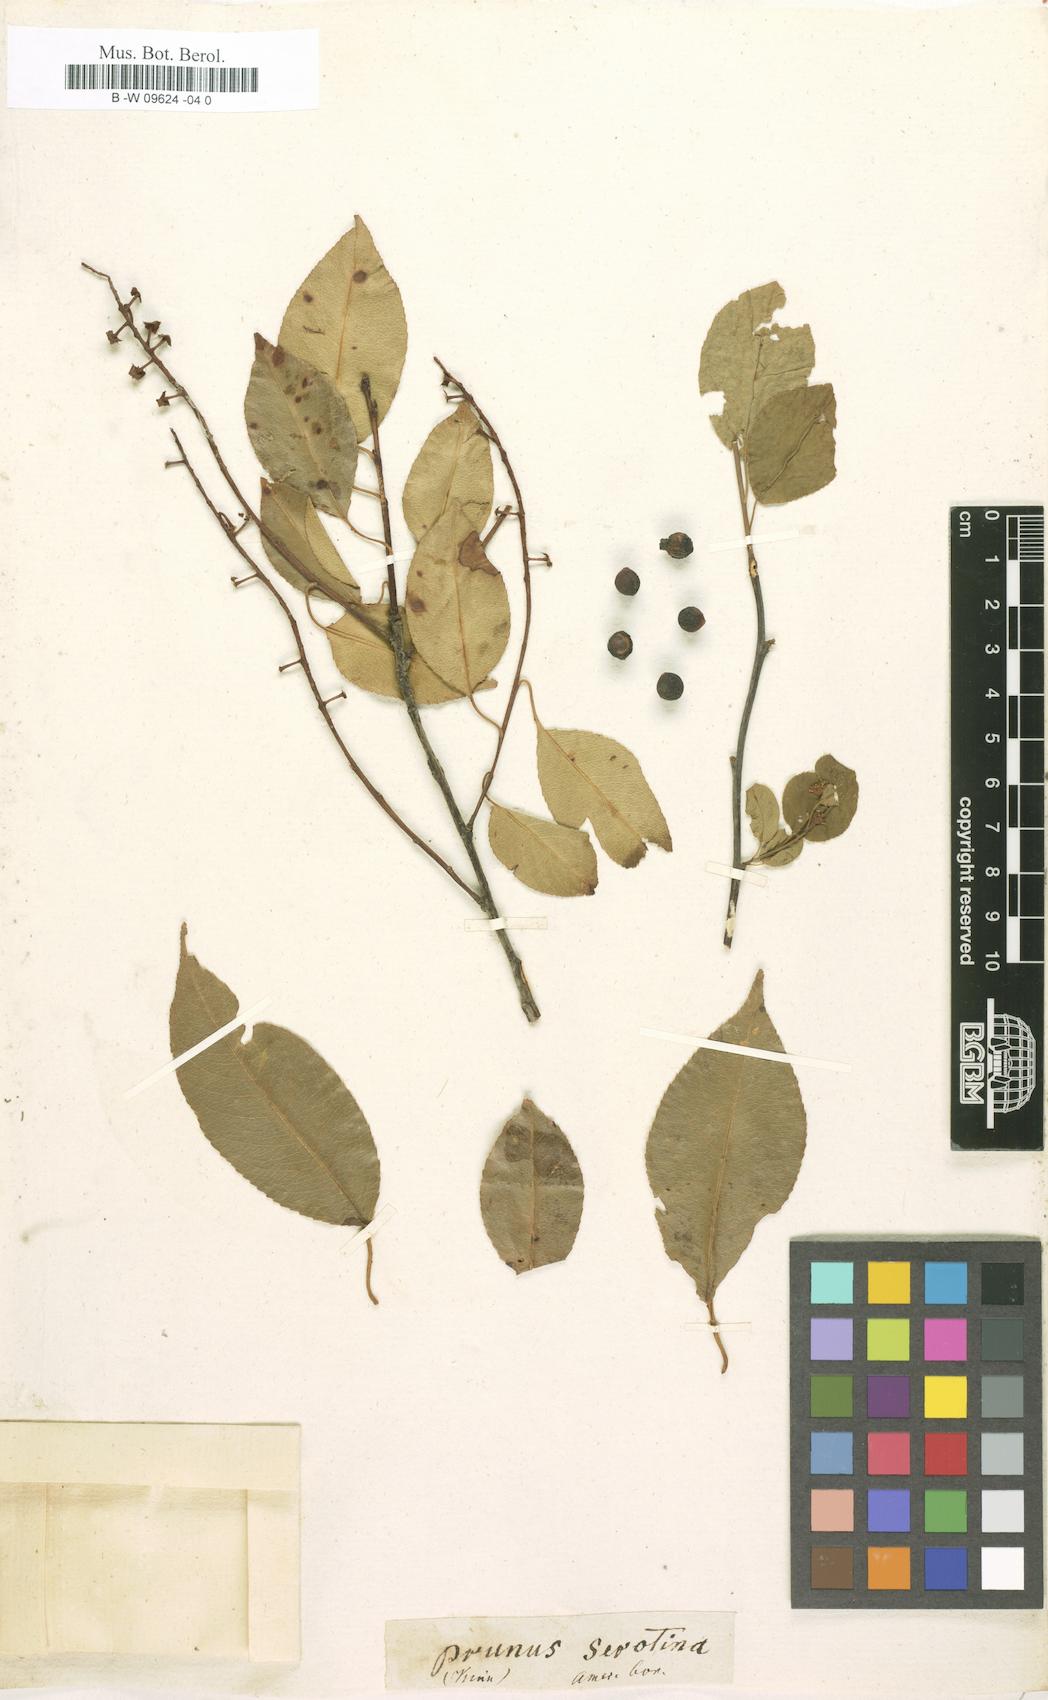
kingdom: Plantae
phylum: Tracheophyta
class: Magnoliopsida
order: Rosales
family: Rosaceae
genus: Prunus
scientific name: Prunus serotina
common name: Black cherry
